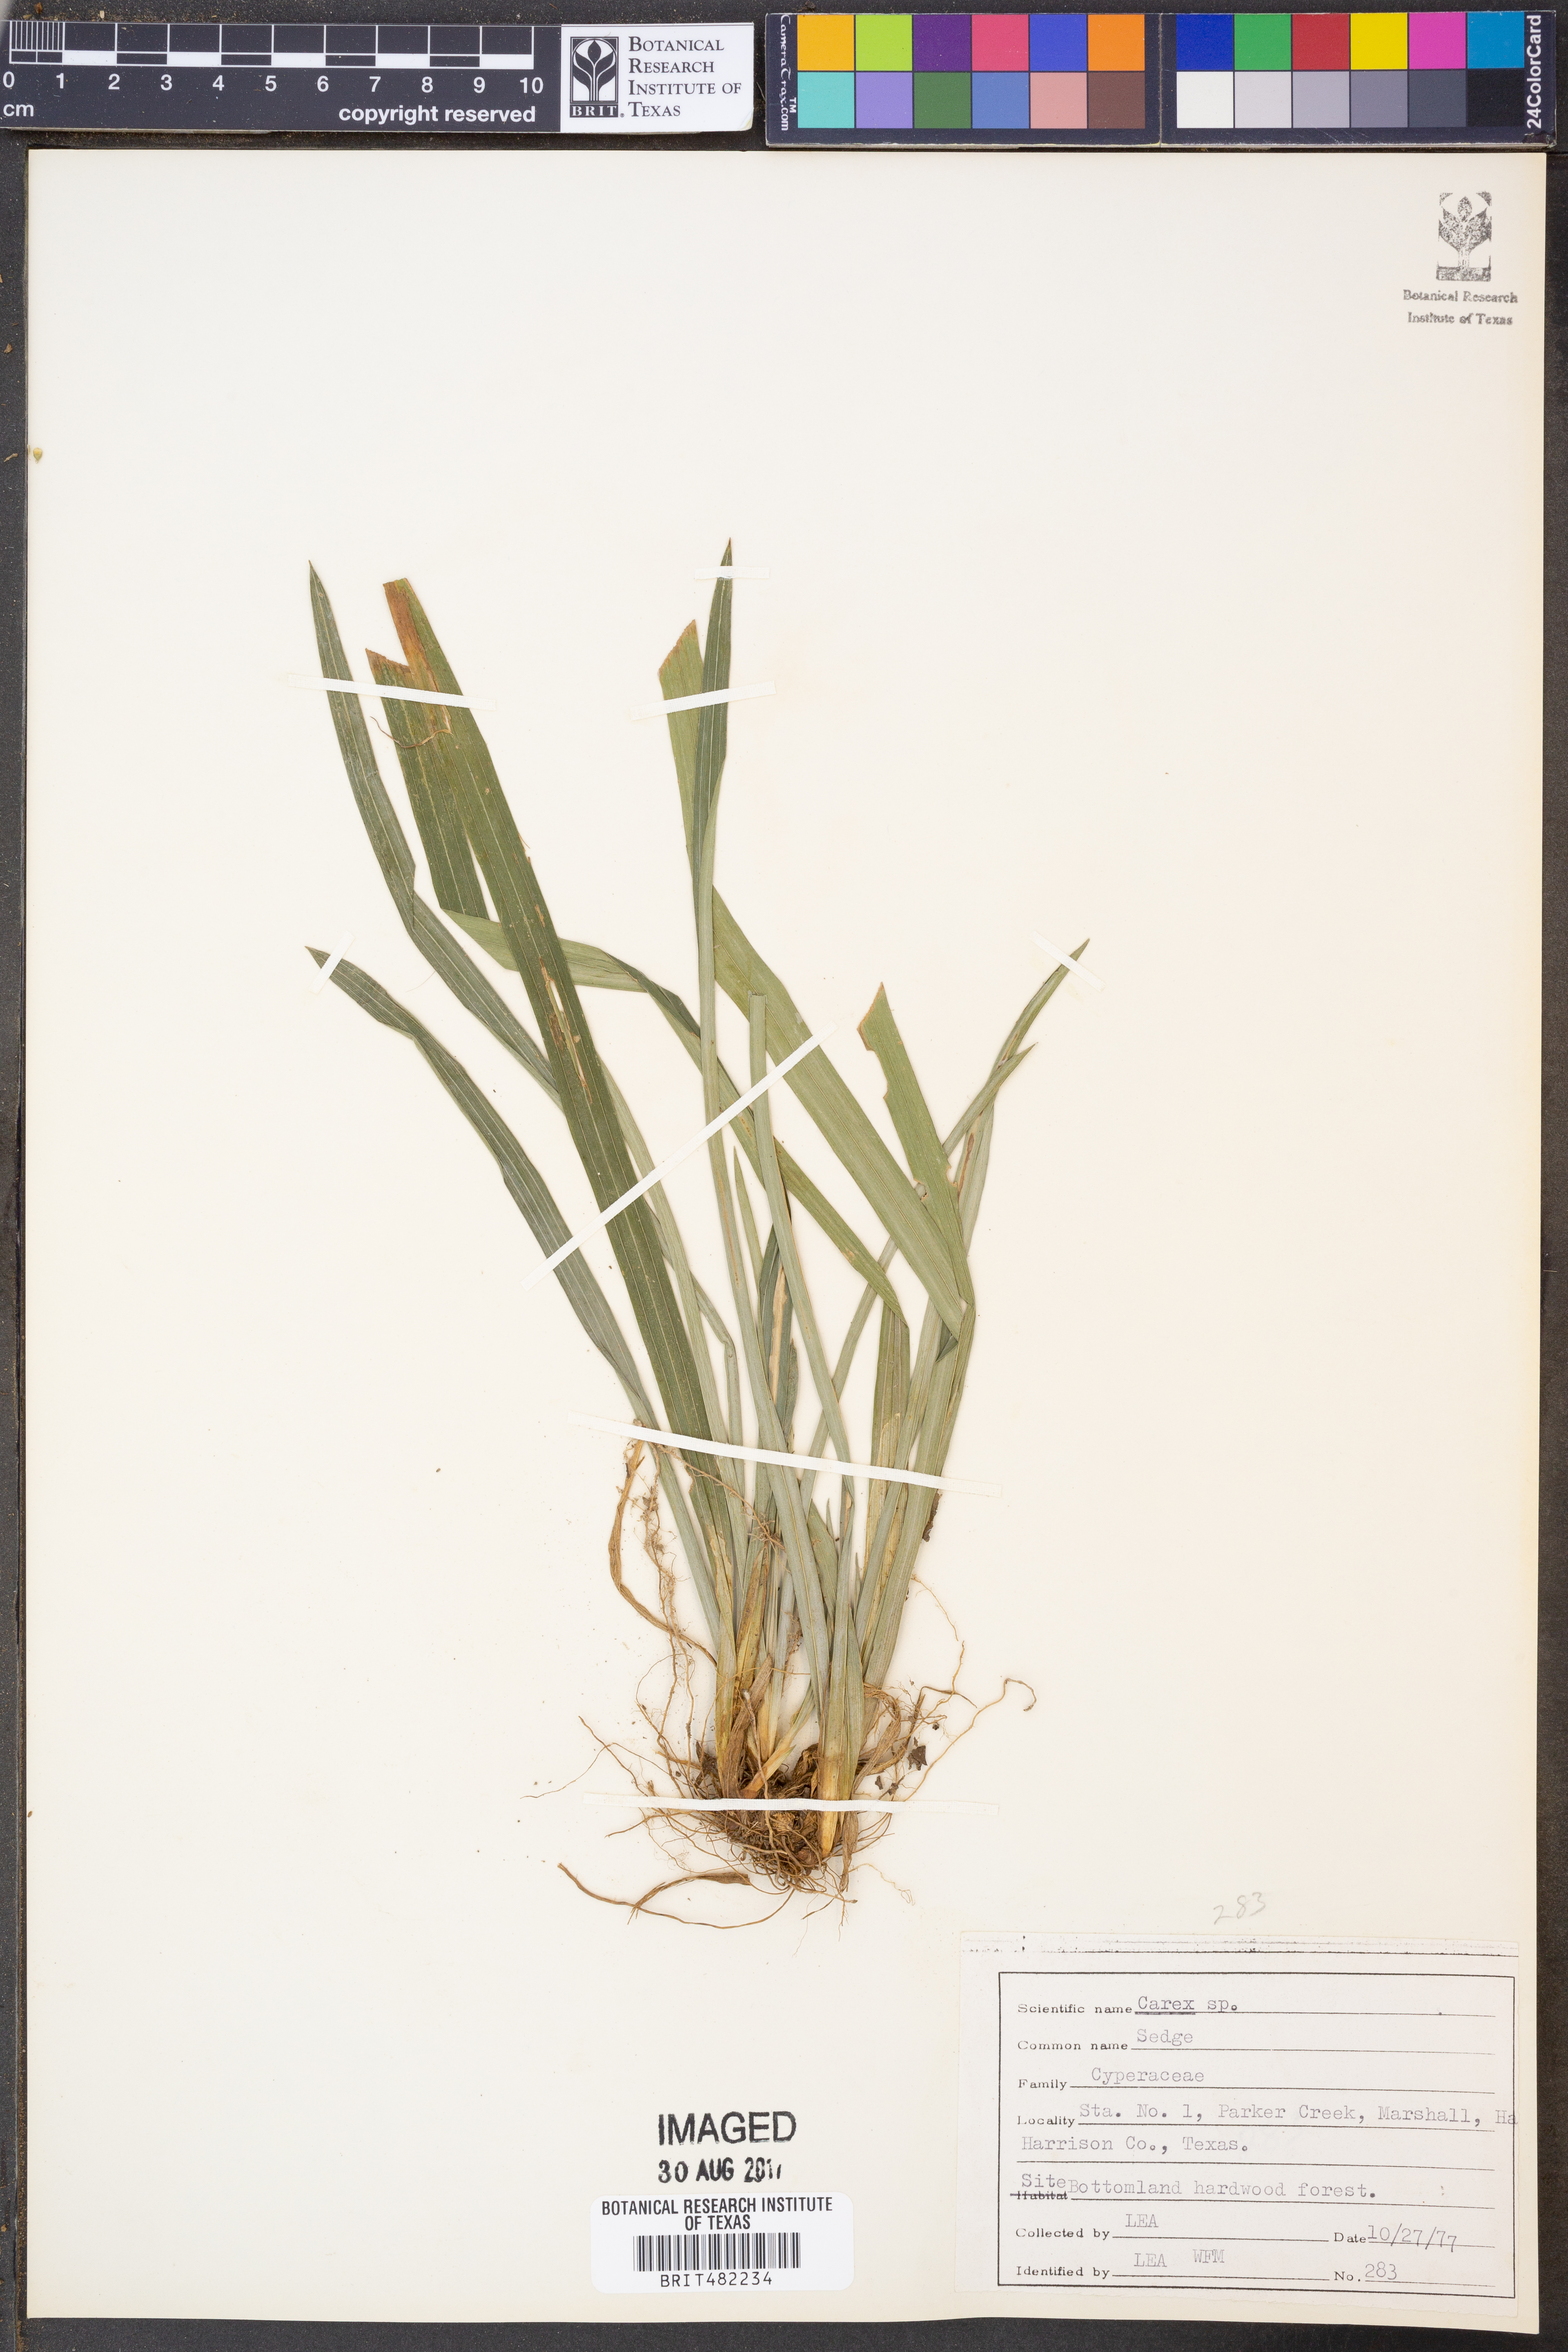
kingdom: Plantae
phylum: Tracheophyta
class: Liliopsida
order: Poales
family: Cyperaceae
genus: Carex
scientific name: Carex
